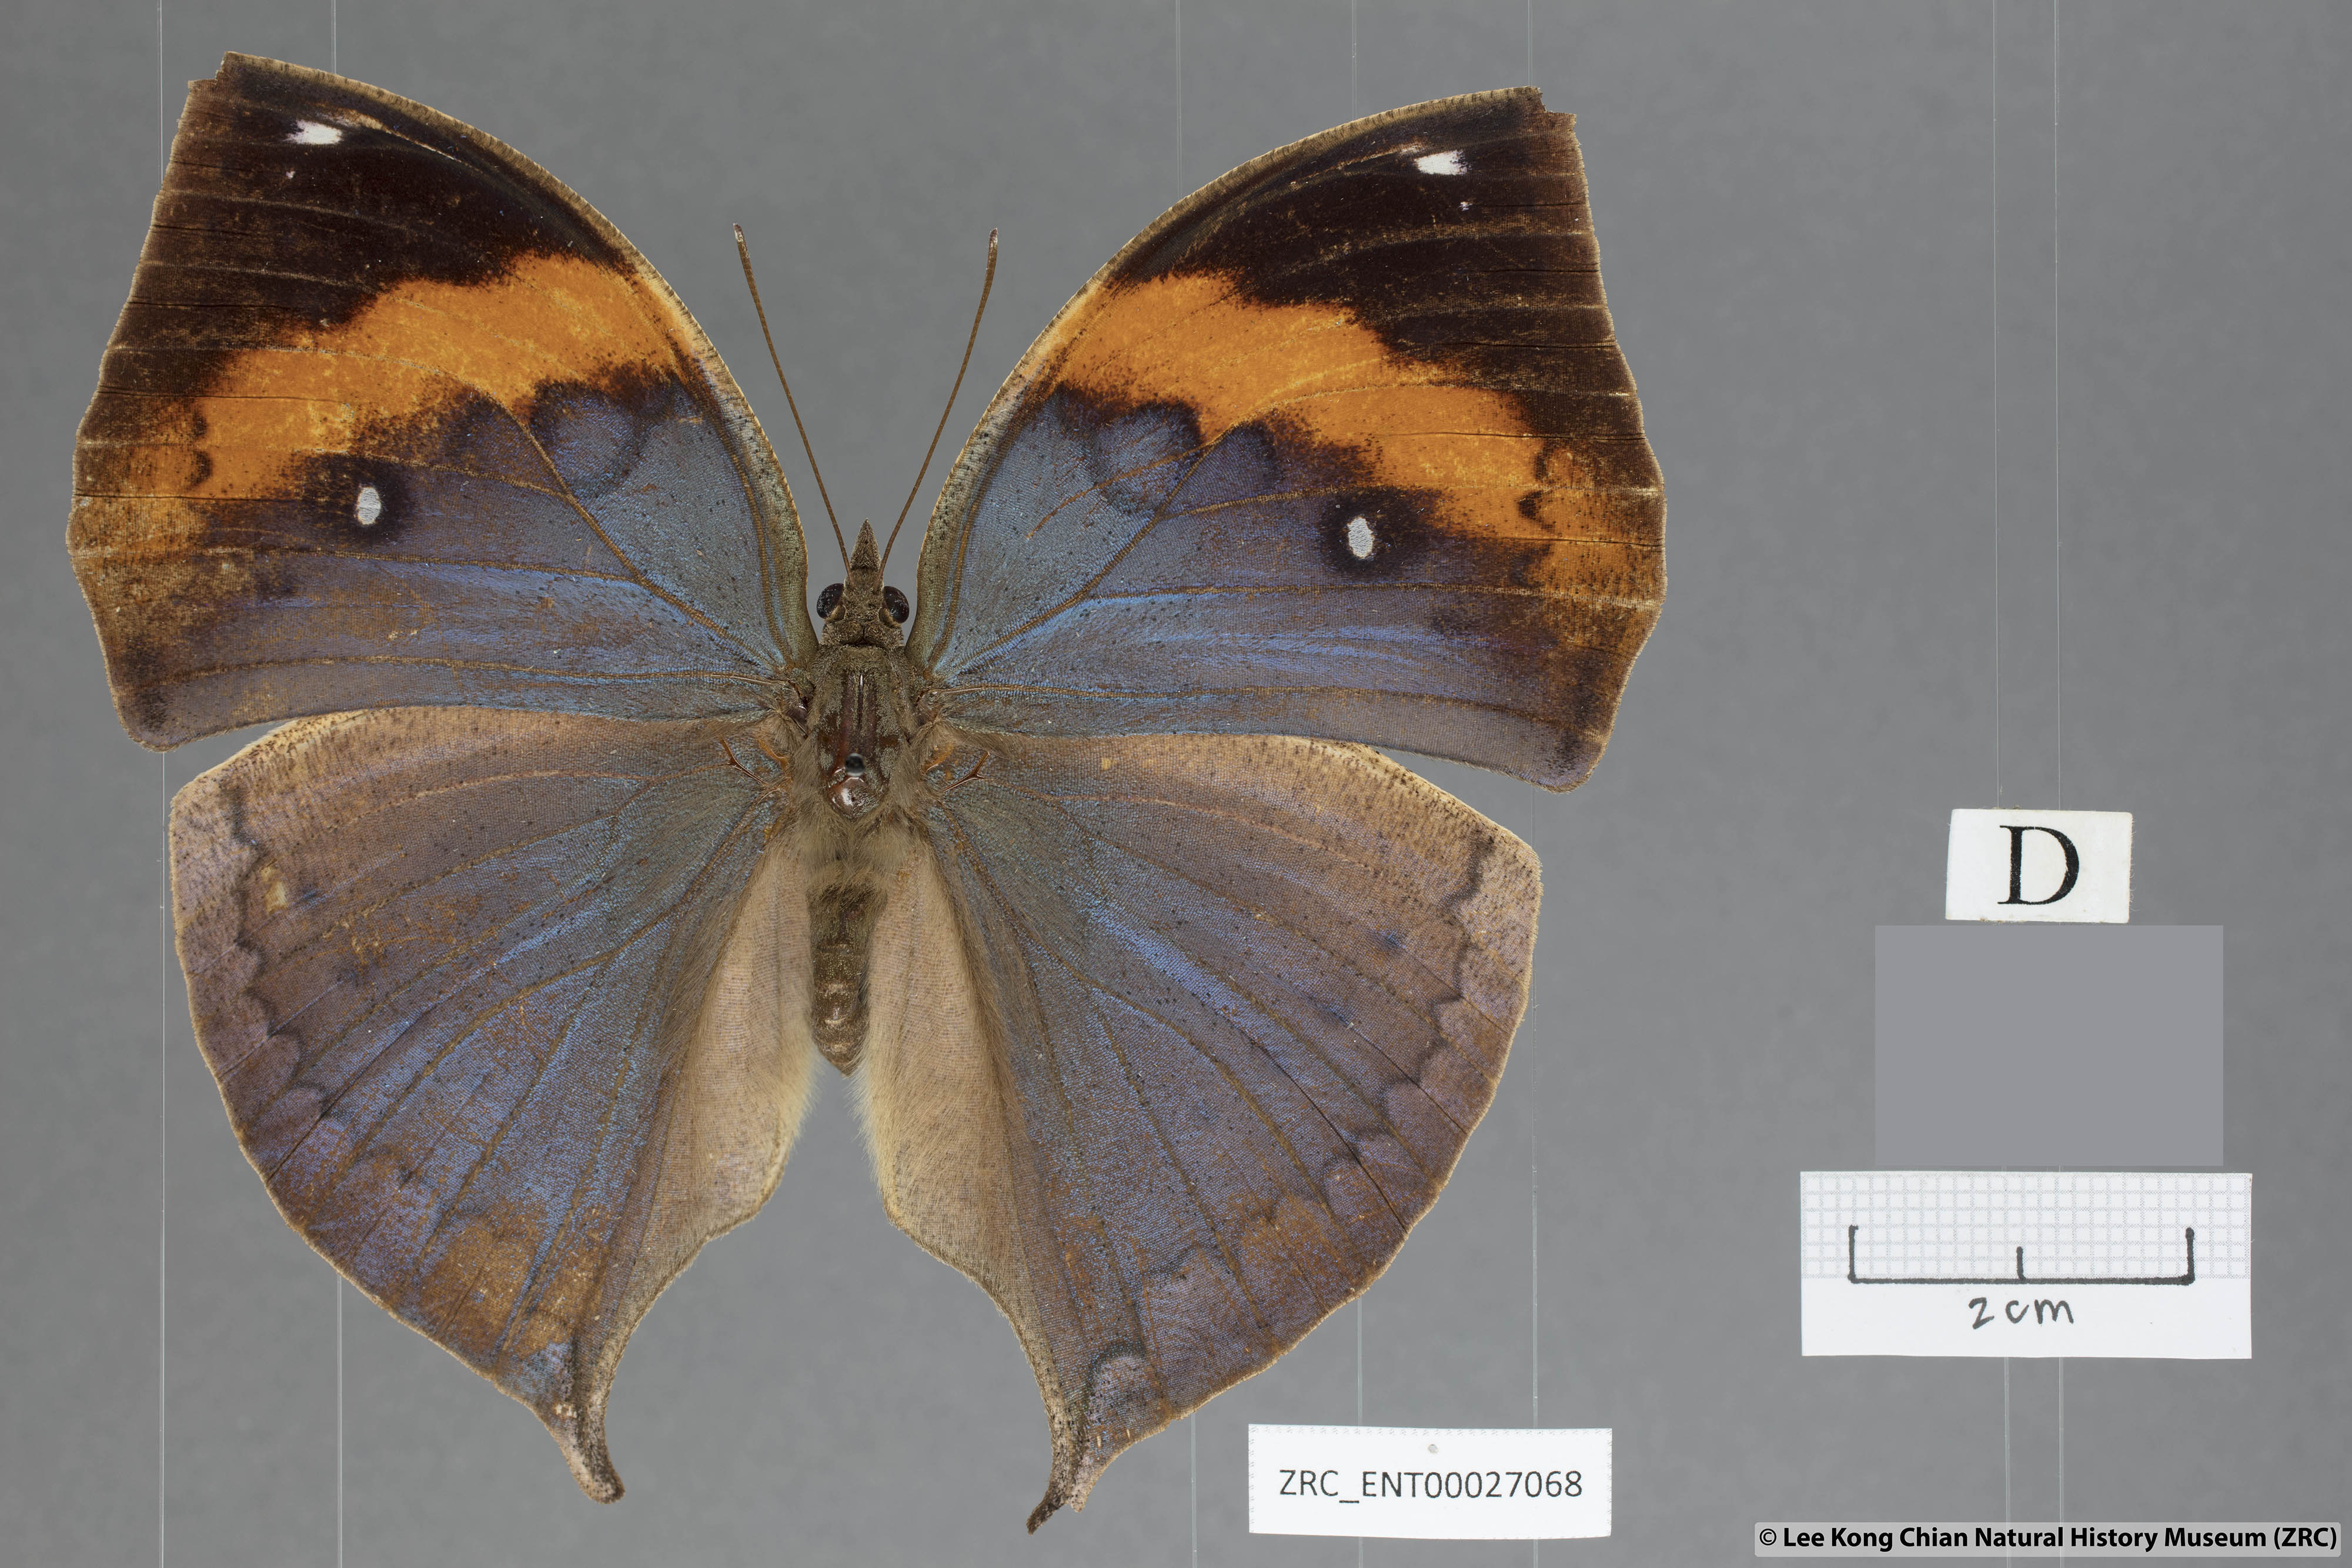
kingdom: Animalia
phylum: Arthropoda
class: Insecta
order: Lepidoptera
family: Nymphalidae
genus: Kallima
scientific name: Kallima paralekta
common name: Indian leafwing
